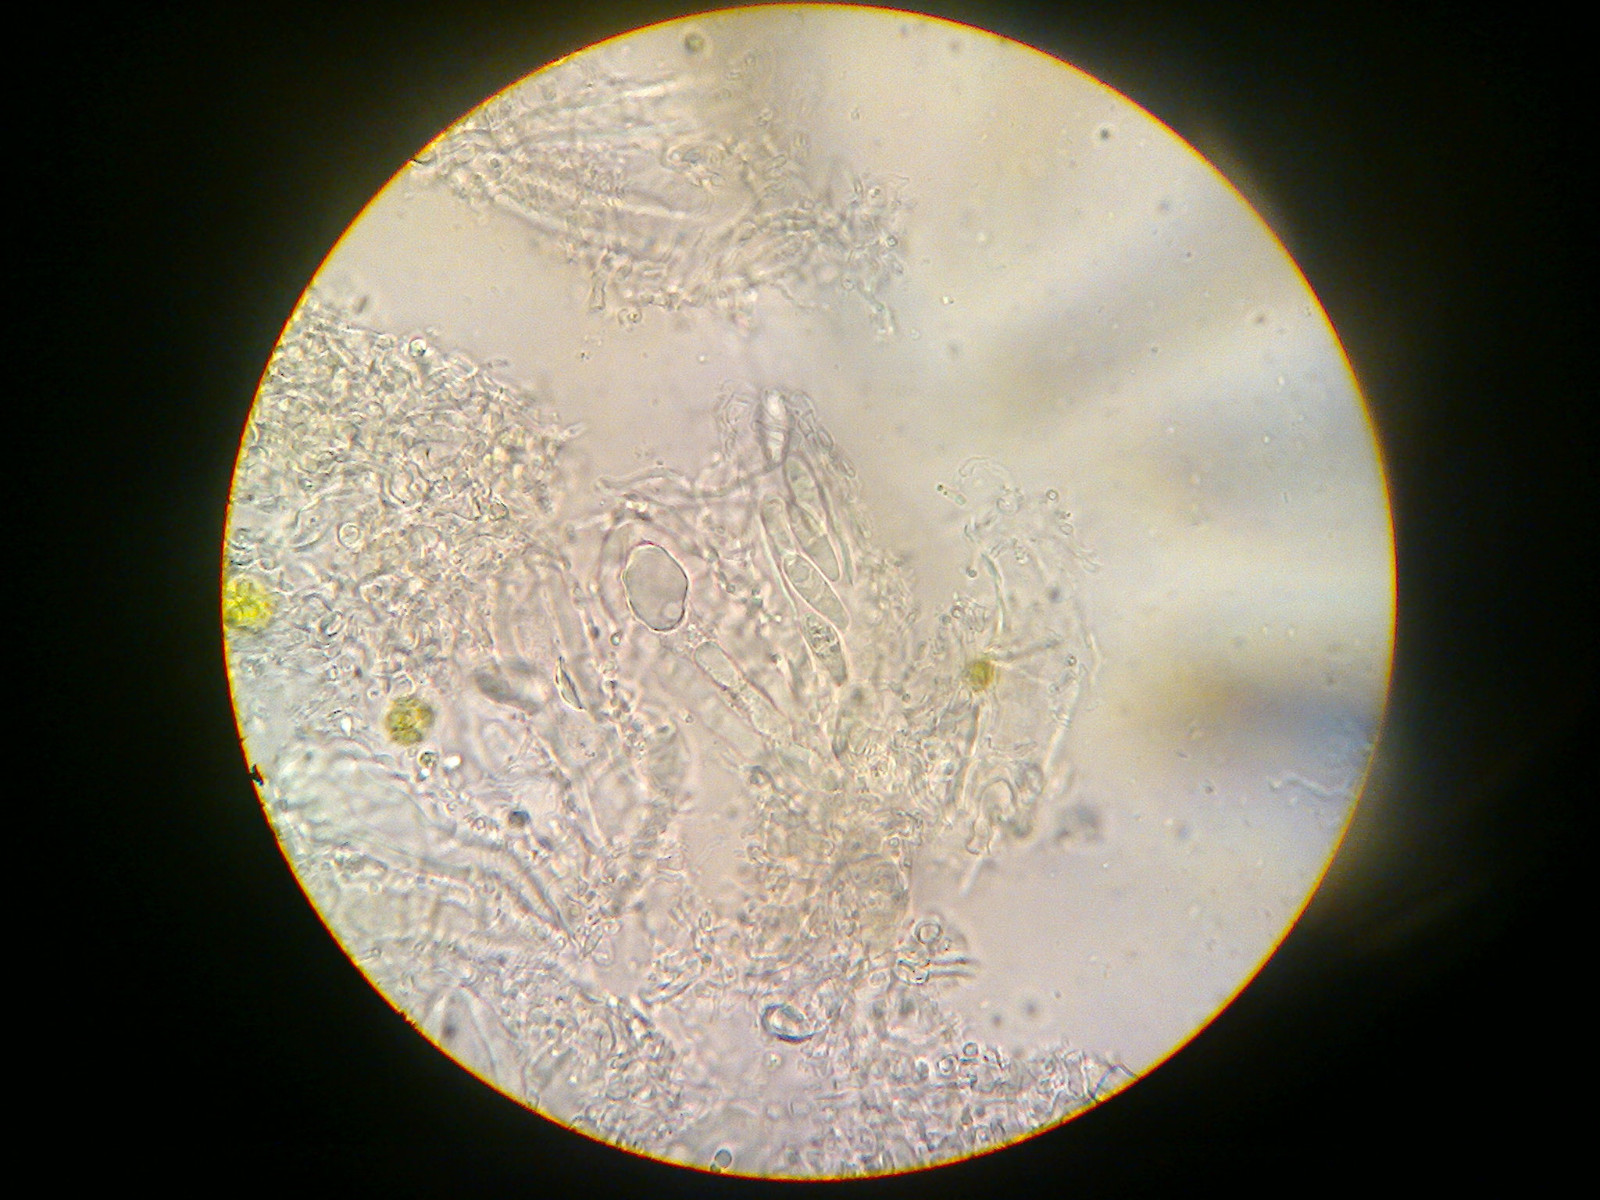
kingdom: Fungi
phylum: Ascomycota
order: Vezdaeales
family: Vezdaeaceae
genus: Vezdaea
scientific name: Vezdaea aestivalis
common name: høst-flygtiglav
